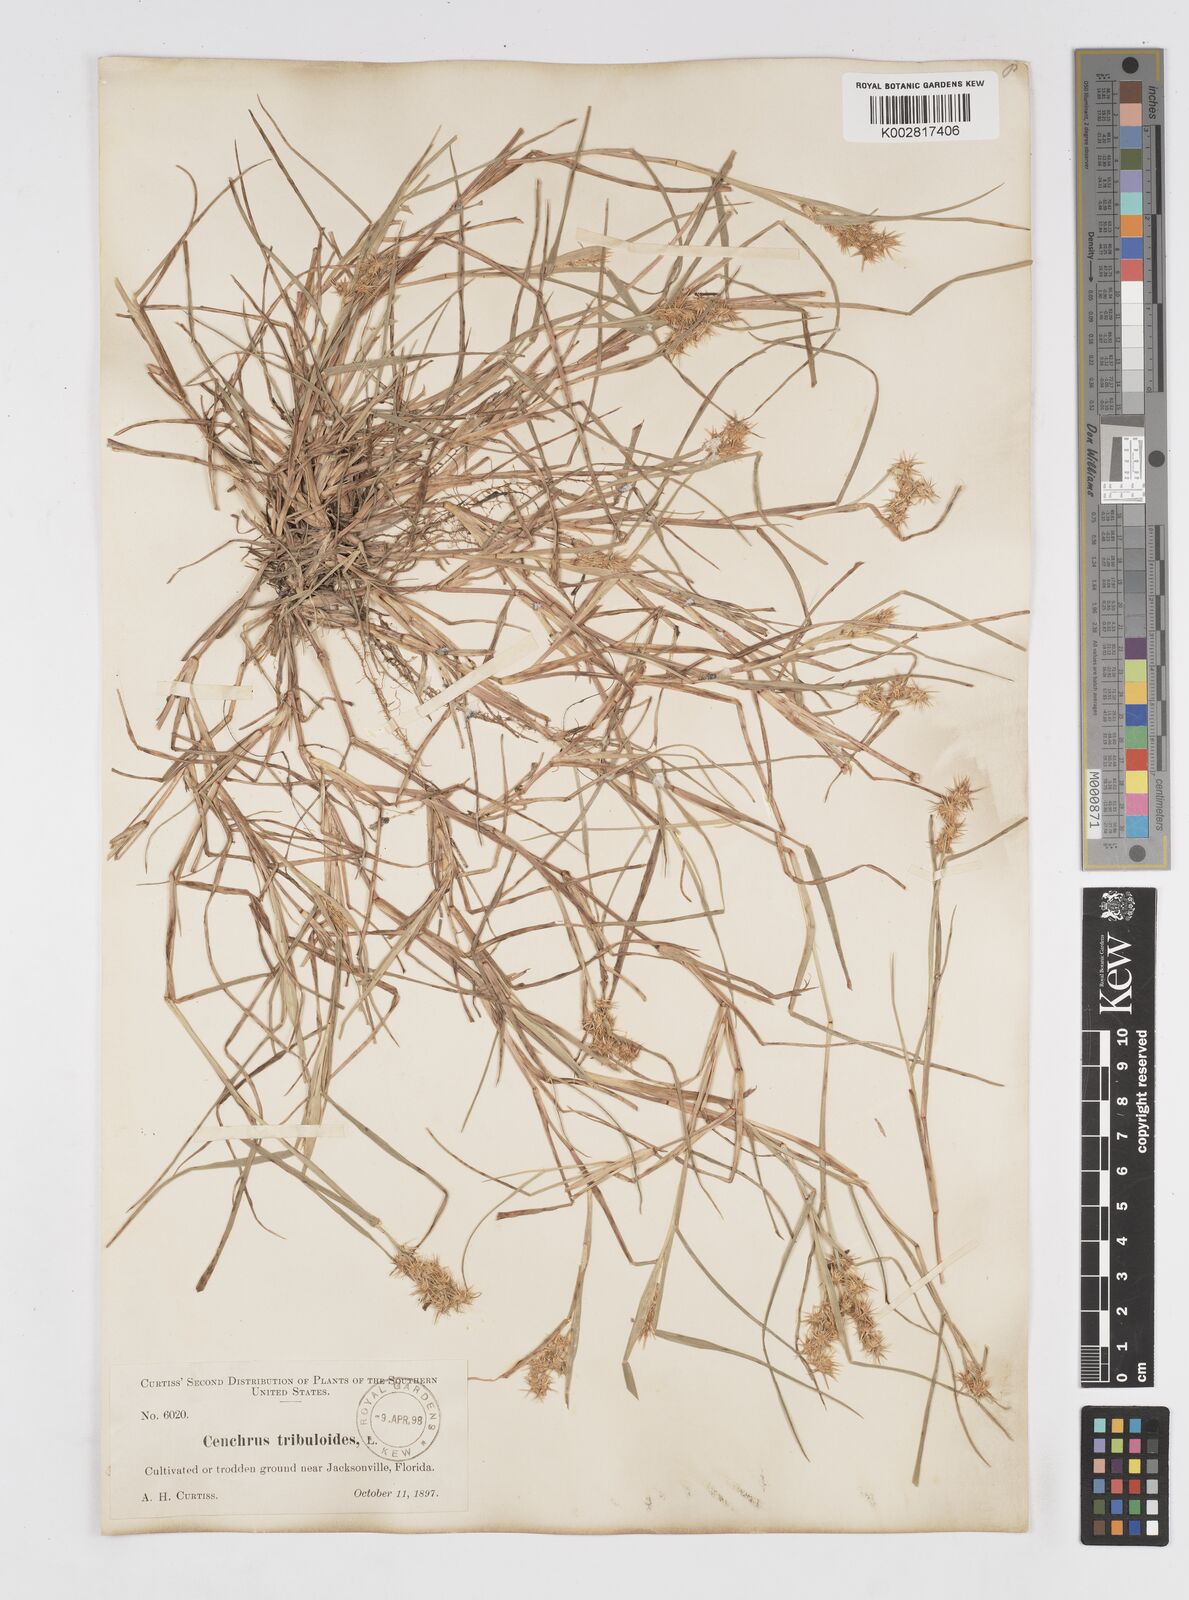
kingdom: Plantae
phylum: Tracheophyta
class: Liliopsida
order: Poales
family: Poaceae
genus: Cenchrus
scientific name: Cenchrus longispinus
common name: Mat sandbur
